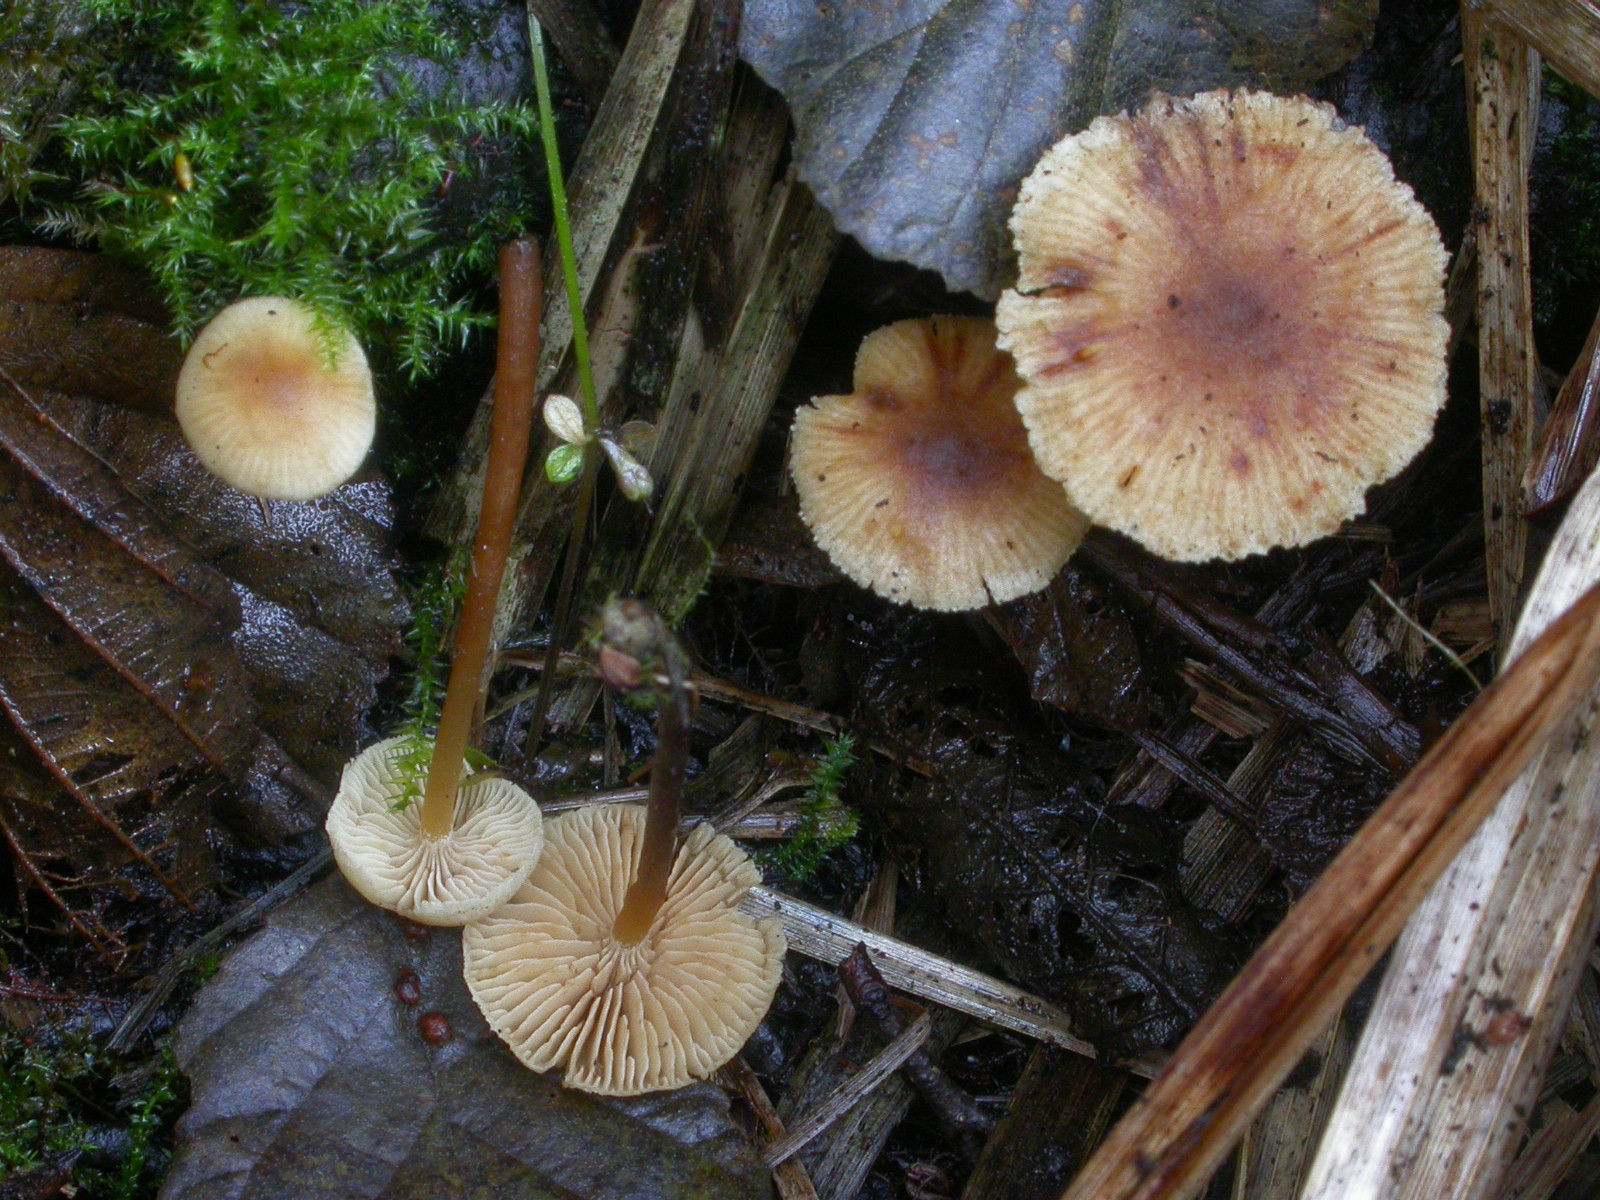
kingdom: Fungi
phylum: Basidiomycota
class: Agaricomycetes
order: Agaricales
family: Hymenogastraceae
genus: Naucoria
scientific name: Naucoria escharioides
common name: lys elle-knaphat
